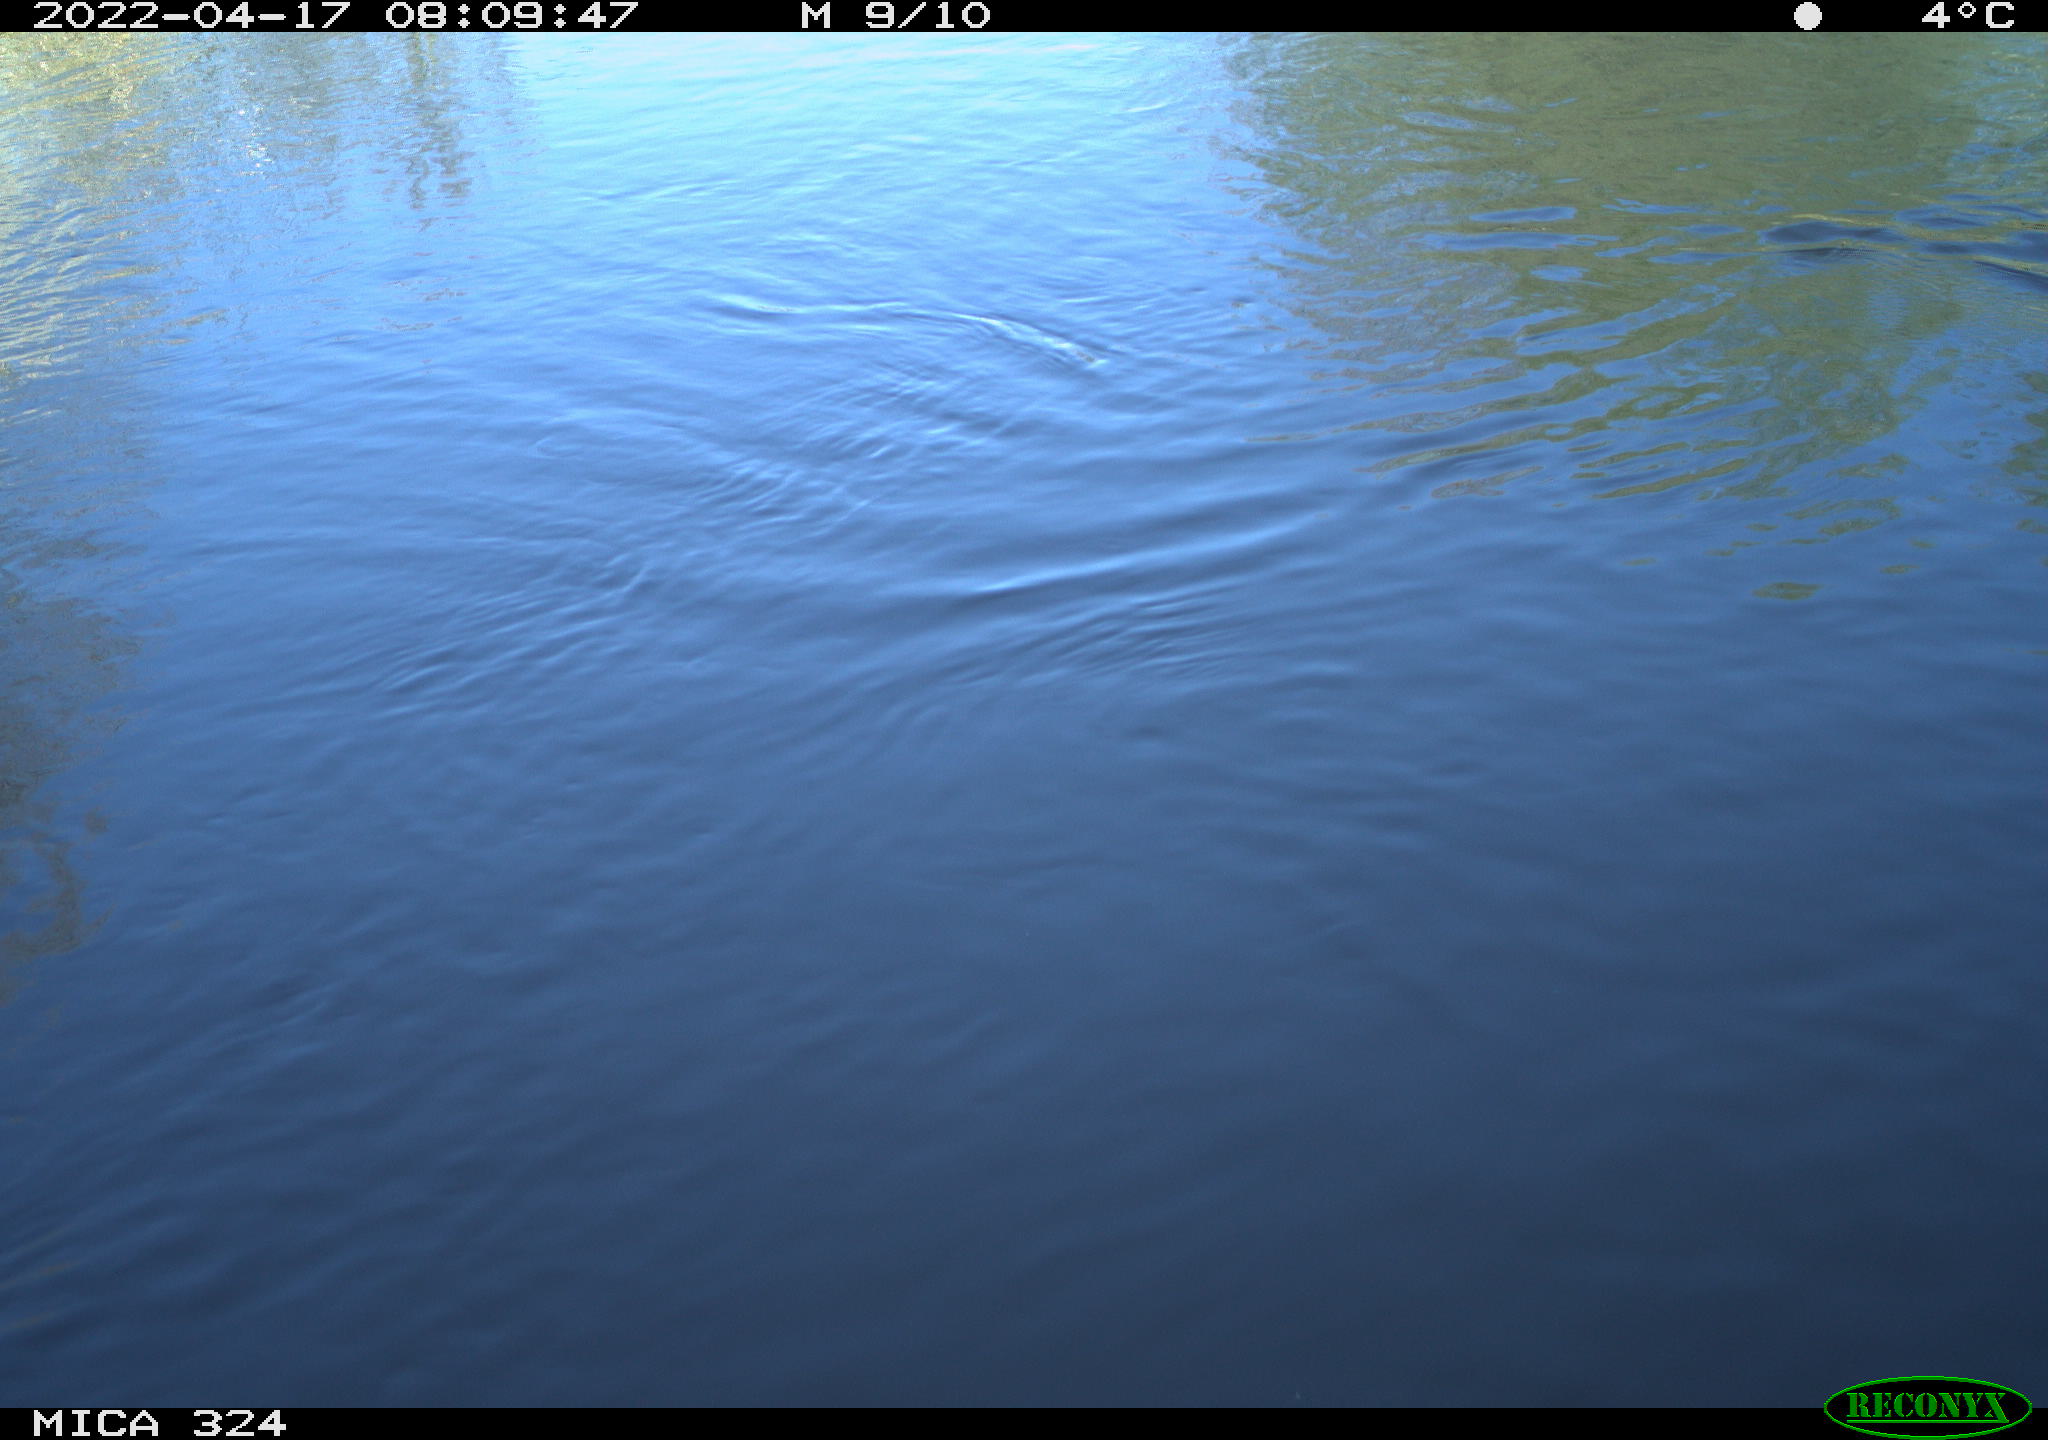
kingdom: Animalia
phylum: Chordata
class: Aves
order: Gruiformes
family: Rallidae
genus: Gallinula
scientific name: Gallinula chloropus
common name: Common moorhen
